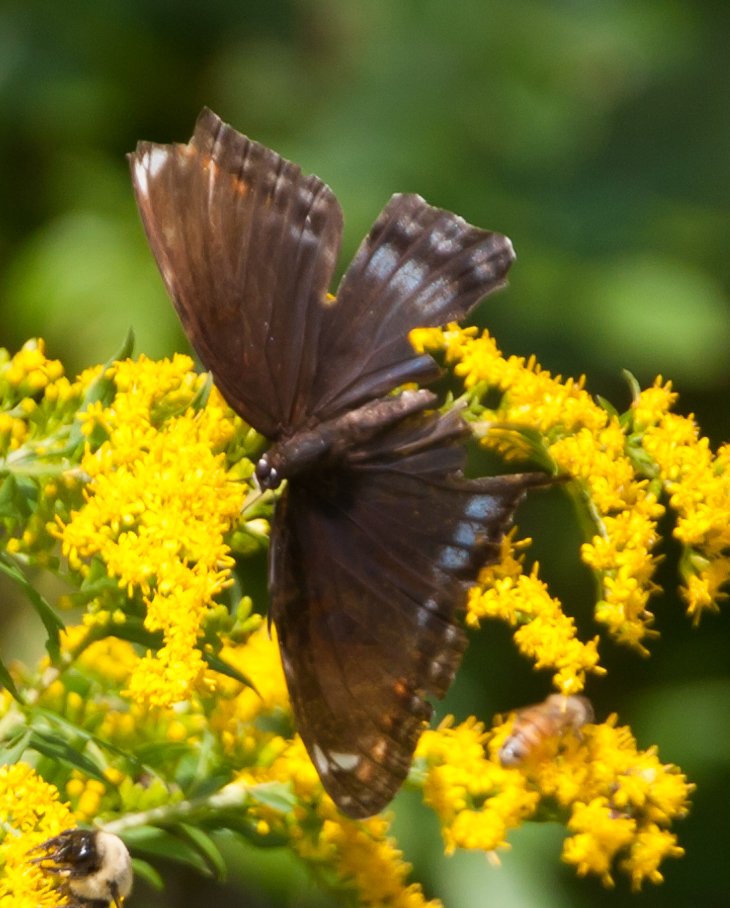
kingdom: Animalia
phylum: Arthropoda
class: Insecta
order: Lepidoptera
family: Nymphalidae
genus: Limenitis
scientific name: Limenitis astyanax
